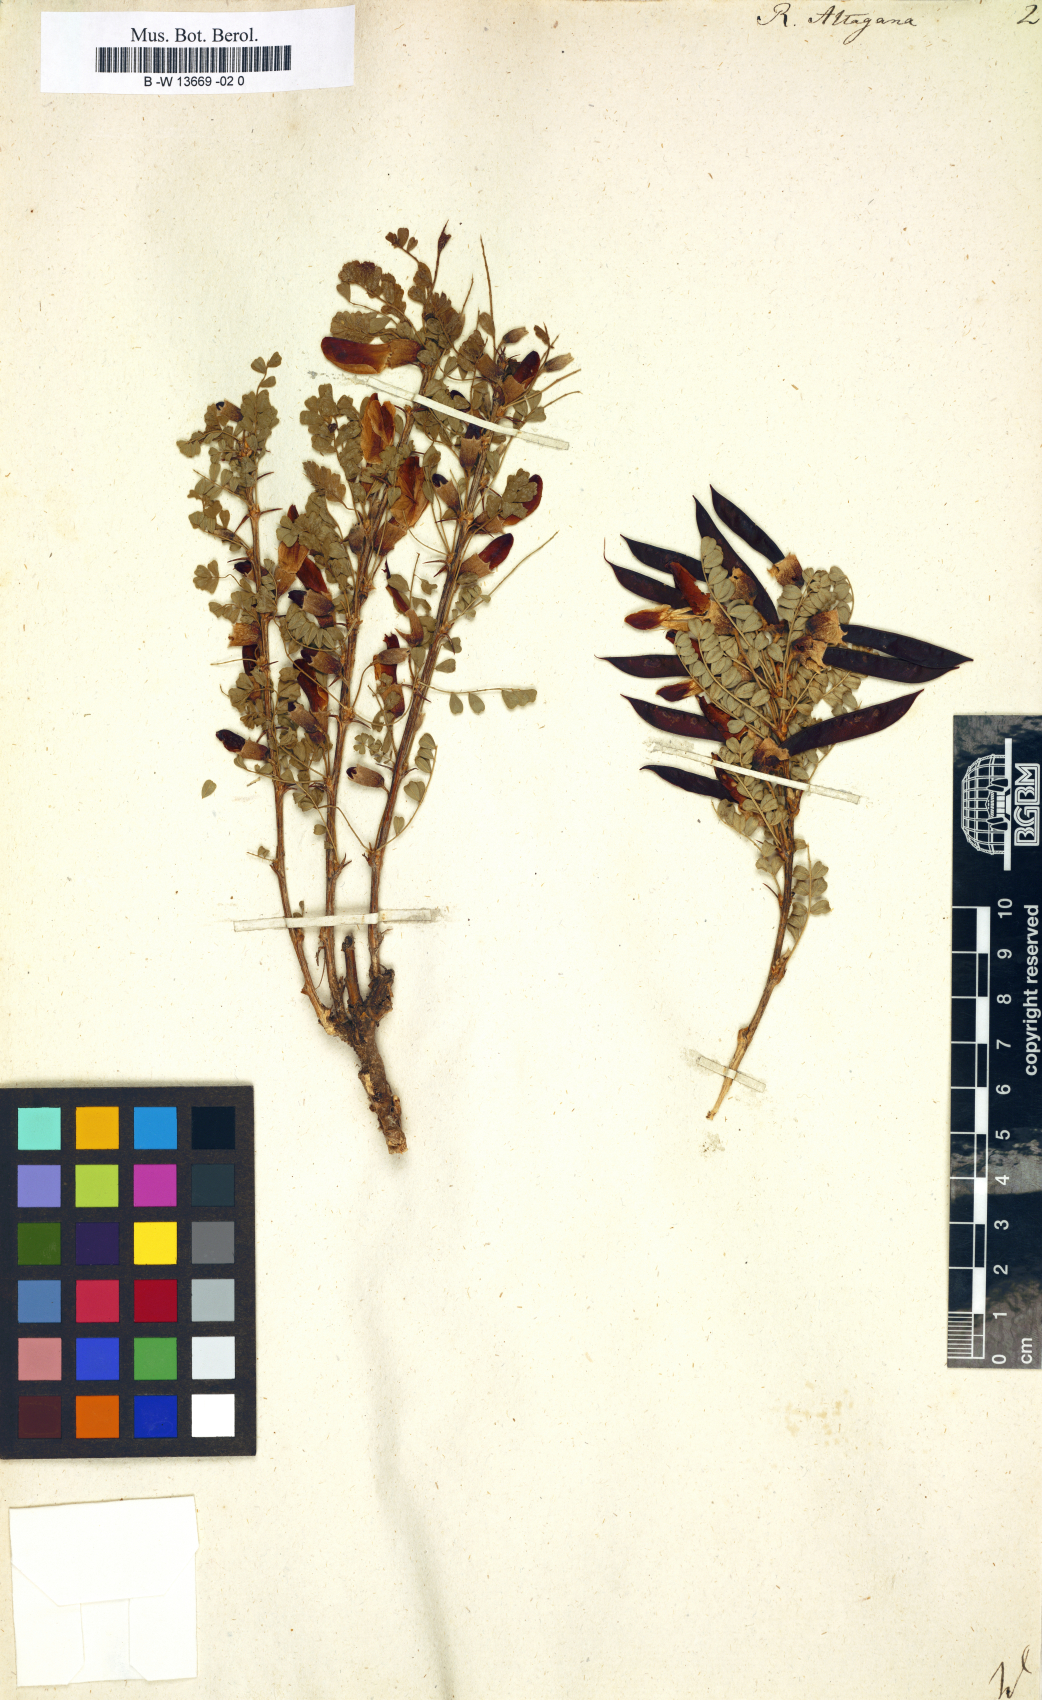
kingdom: Plantae
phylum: Tracheophyta
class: Magnoliopsida
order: Fabales
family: Fabaceae
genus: Caragana
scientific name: Caragana arborescens
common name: Siberian peashrub
